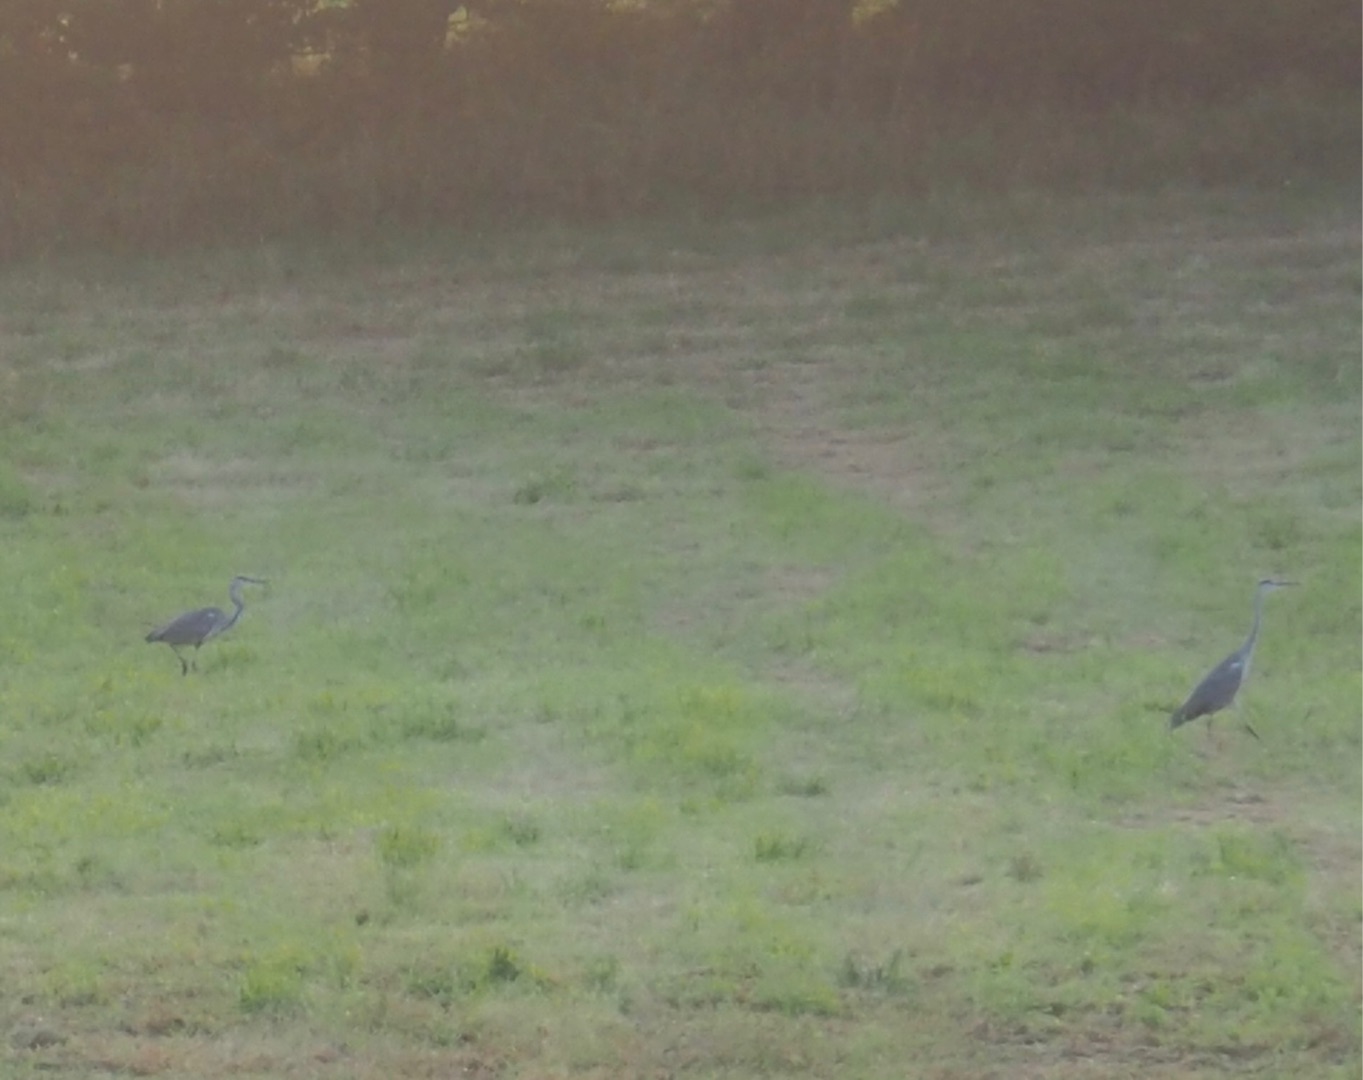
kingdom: Animalia
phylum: Chordata
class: Aves
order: Pelecaniformes
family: Ardeidae
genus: Ardea
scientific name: Ardea cinerea
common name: Fiskehejre
